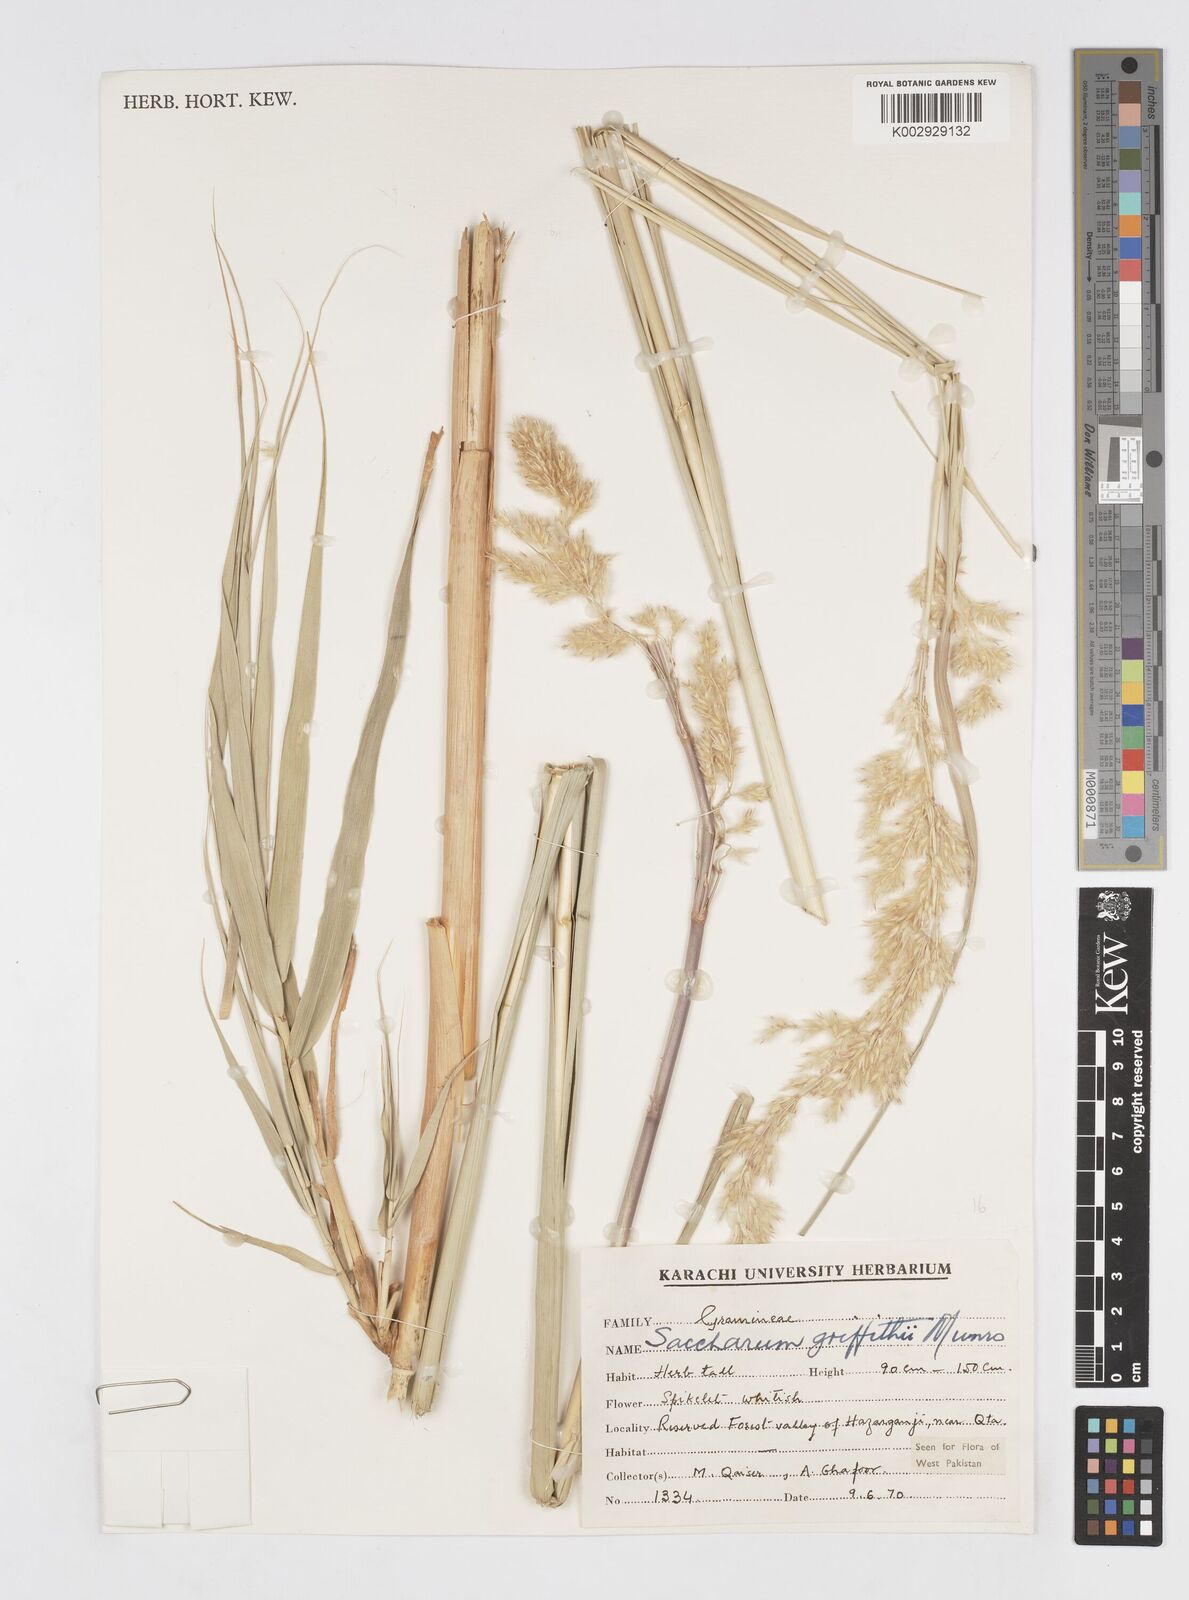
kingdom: Plantae
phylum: Tracheophyta
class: Liliopsida
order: Poales
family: Poaceae
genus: Saccharum
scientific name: Saccharum griffithii
